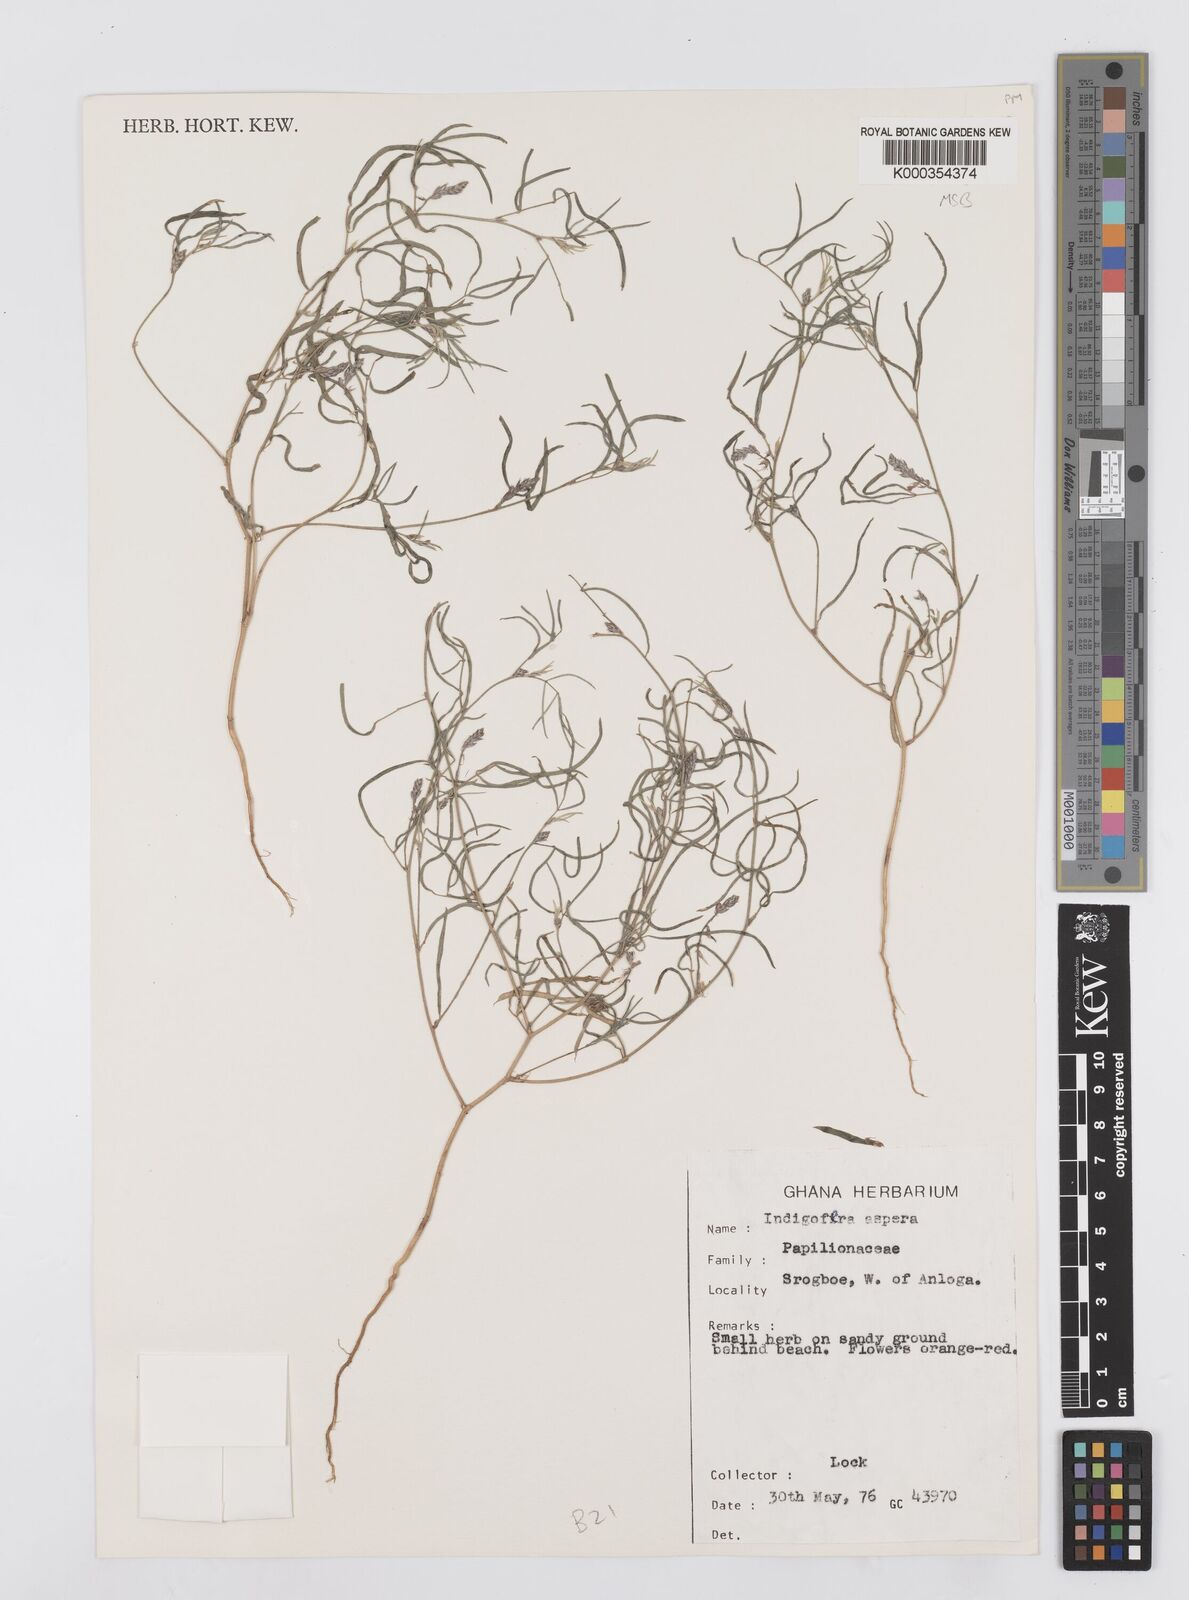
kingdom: Plantae
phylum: Tracheophyta
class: Magnoliopsida
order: Fabales
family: Fabaceae
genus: Indigofera
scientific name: Indigofera aspera
